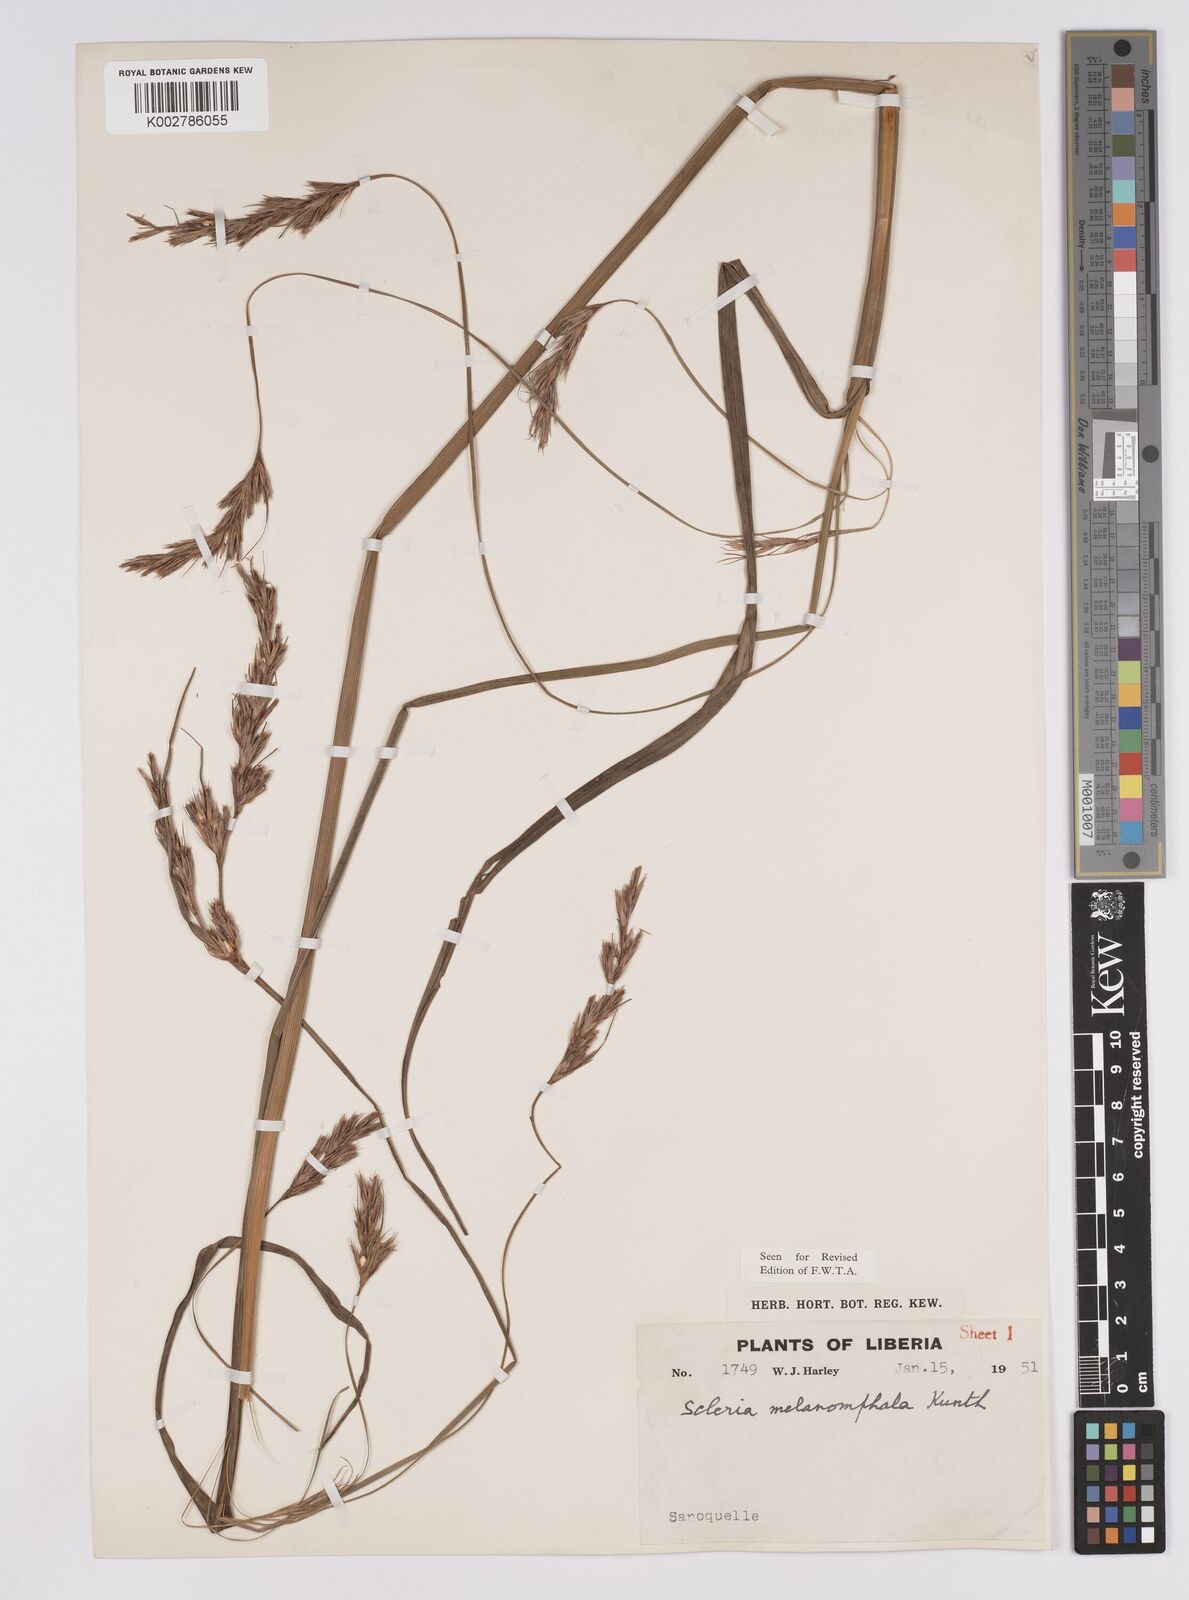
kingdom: Plantae
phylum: Tracheophyta
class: Liliopsida
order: Poales
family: Cyperaceae
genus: Scleria
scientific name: Scleria melanomphala
